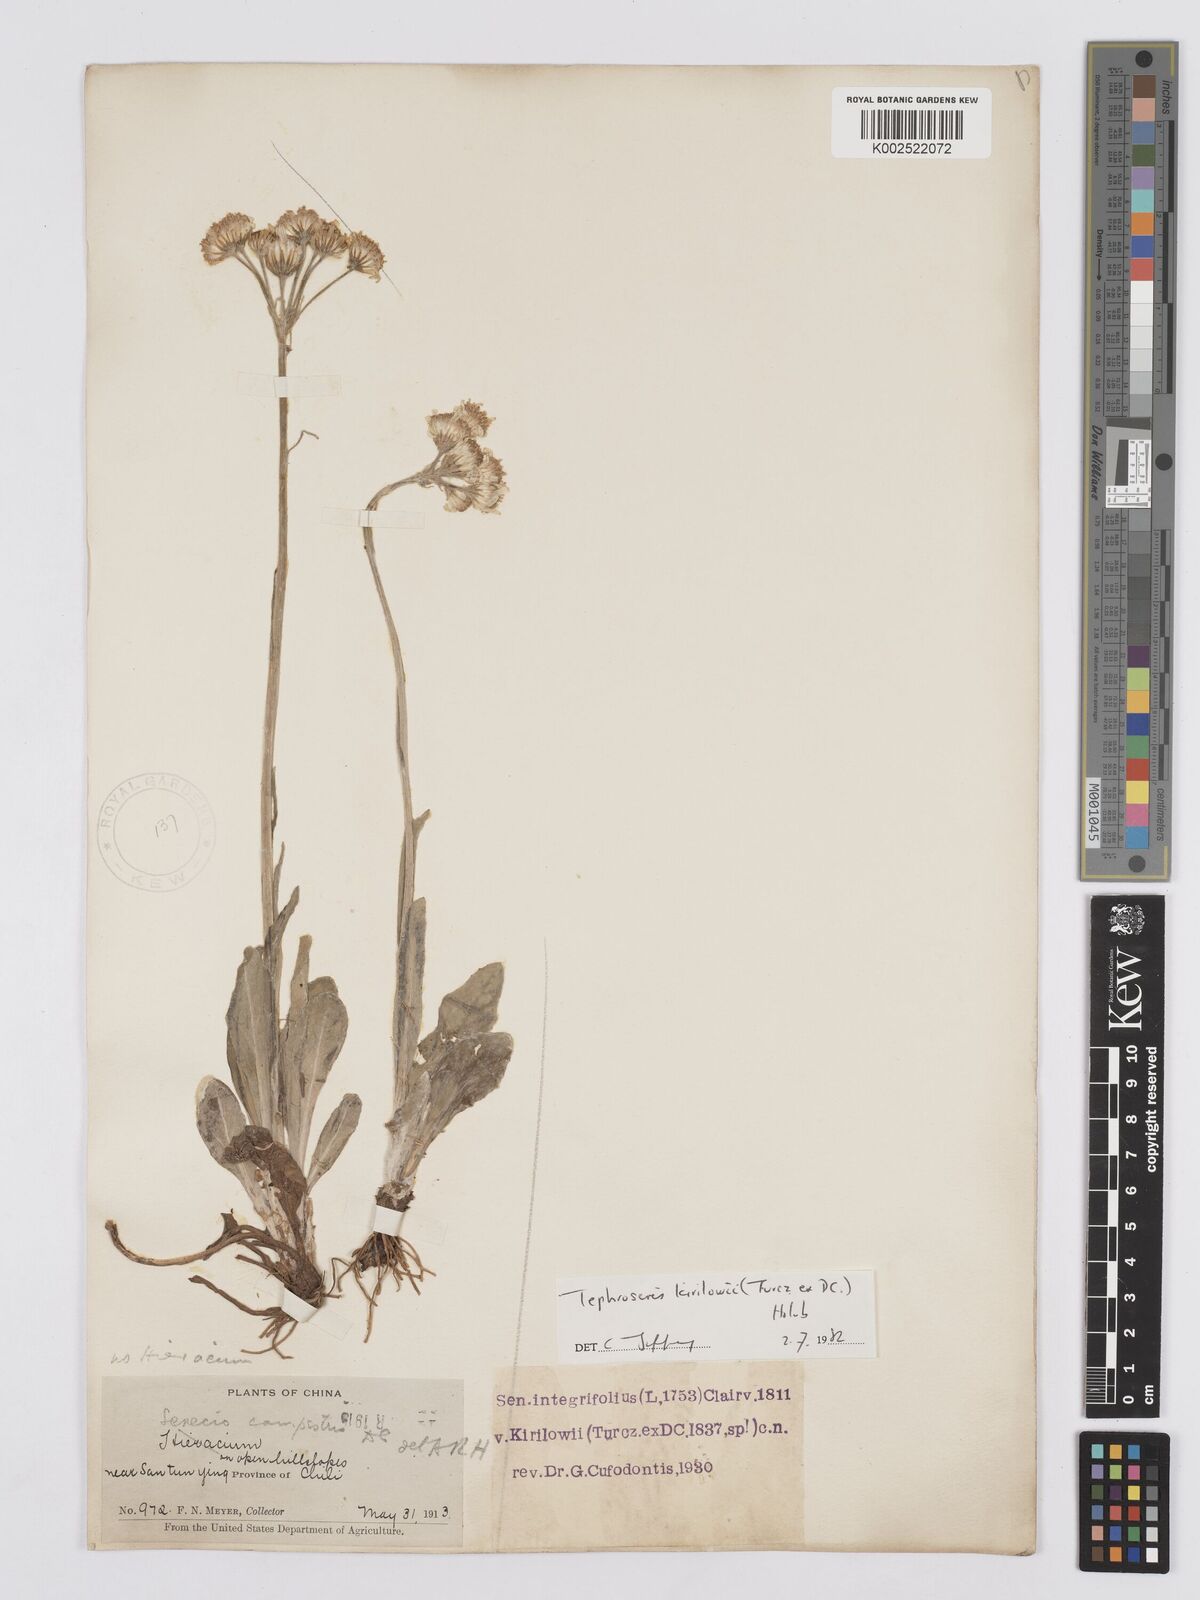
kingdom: Plantae
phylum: Tracheophyta
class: Magnoliopsida
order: Asterales
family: Asteraceae
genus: Tephroseris
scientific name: Tephroseris kirilowii
